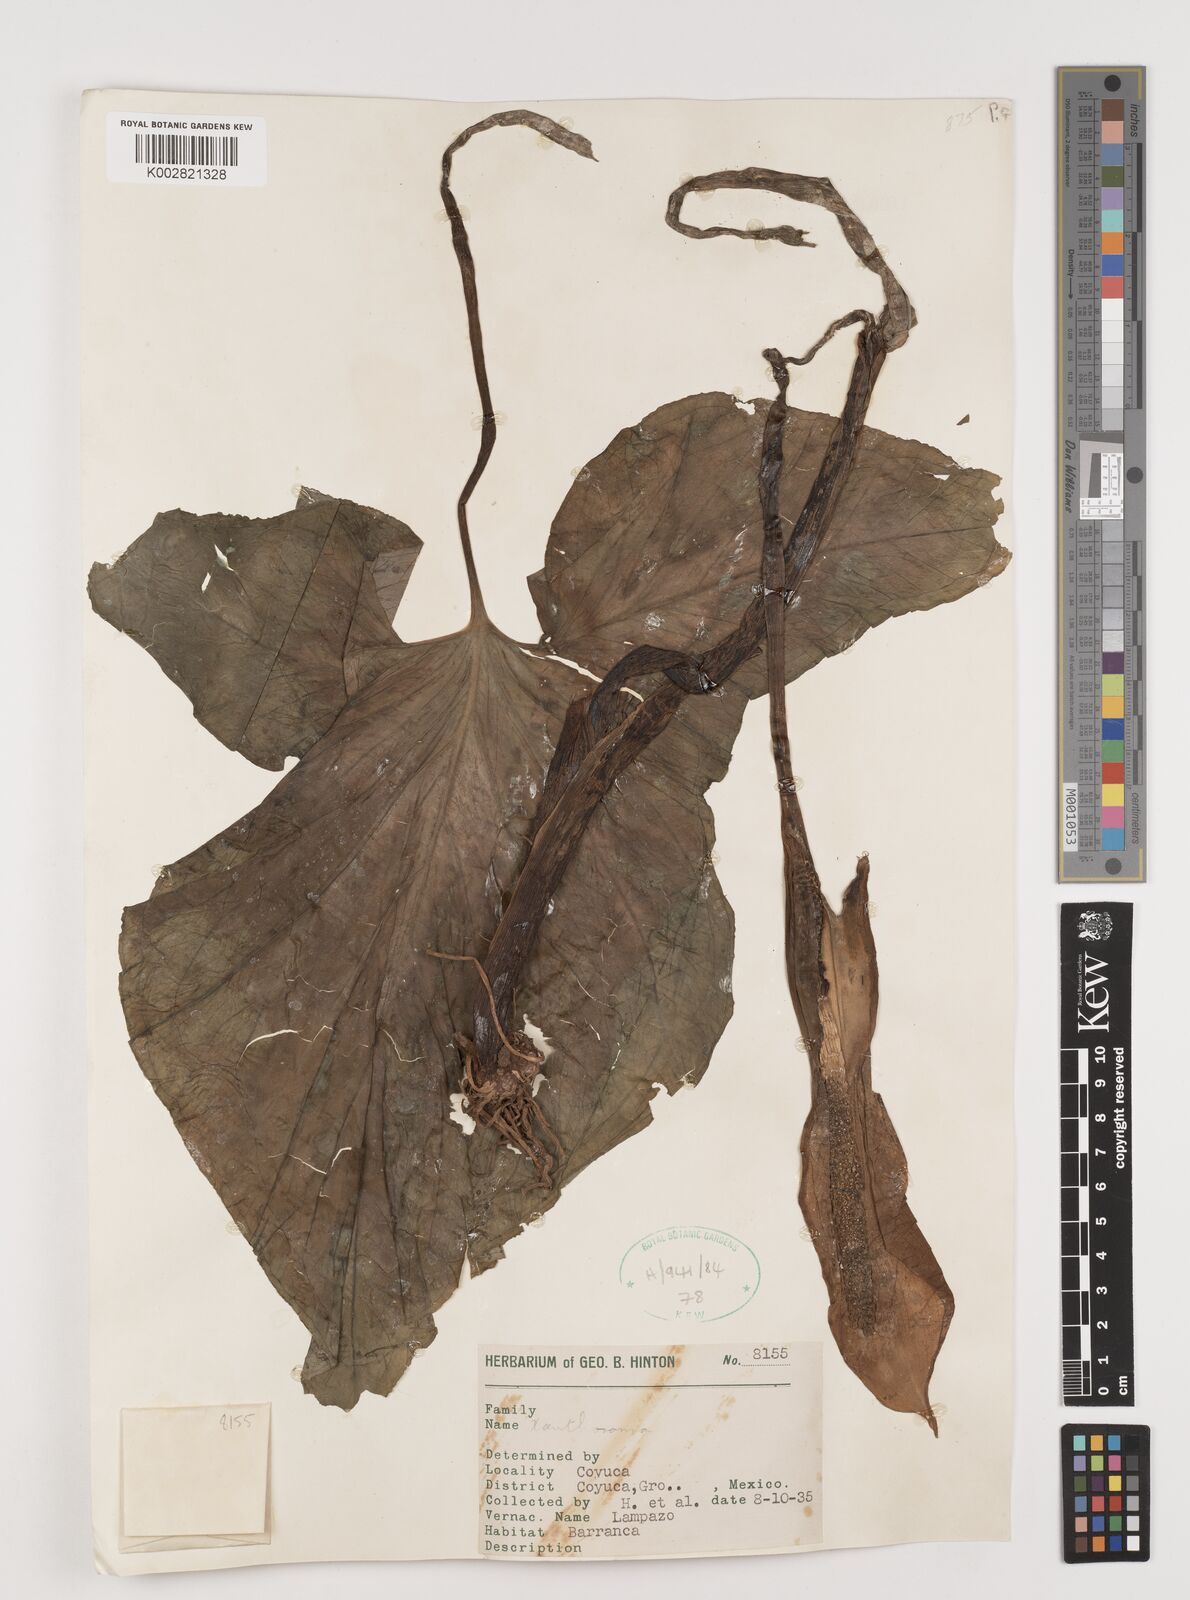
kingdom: Plantae
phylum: Tracheophyta
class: Liliopsida
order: Alismatales
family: Araceae
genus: Xanthosoma
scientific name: Xanthosoma
